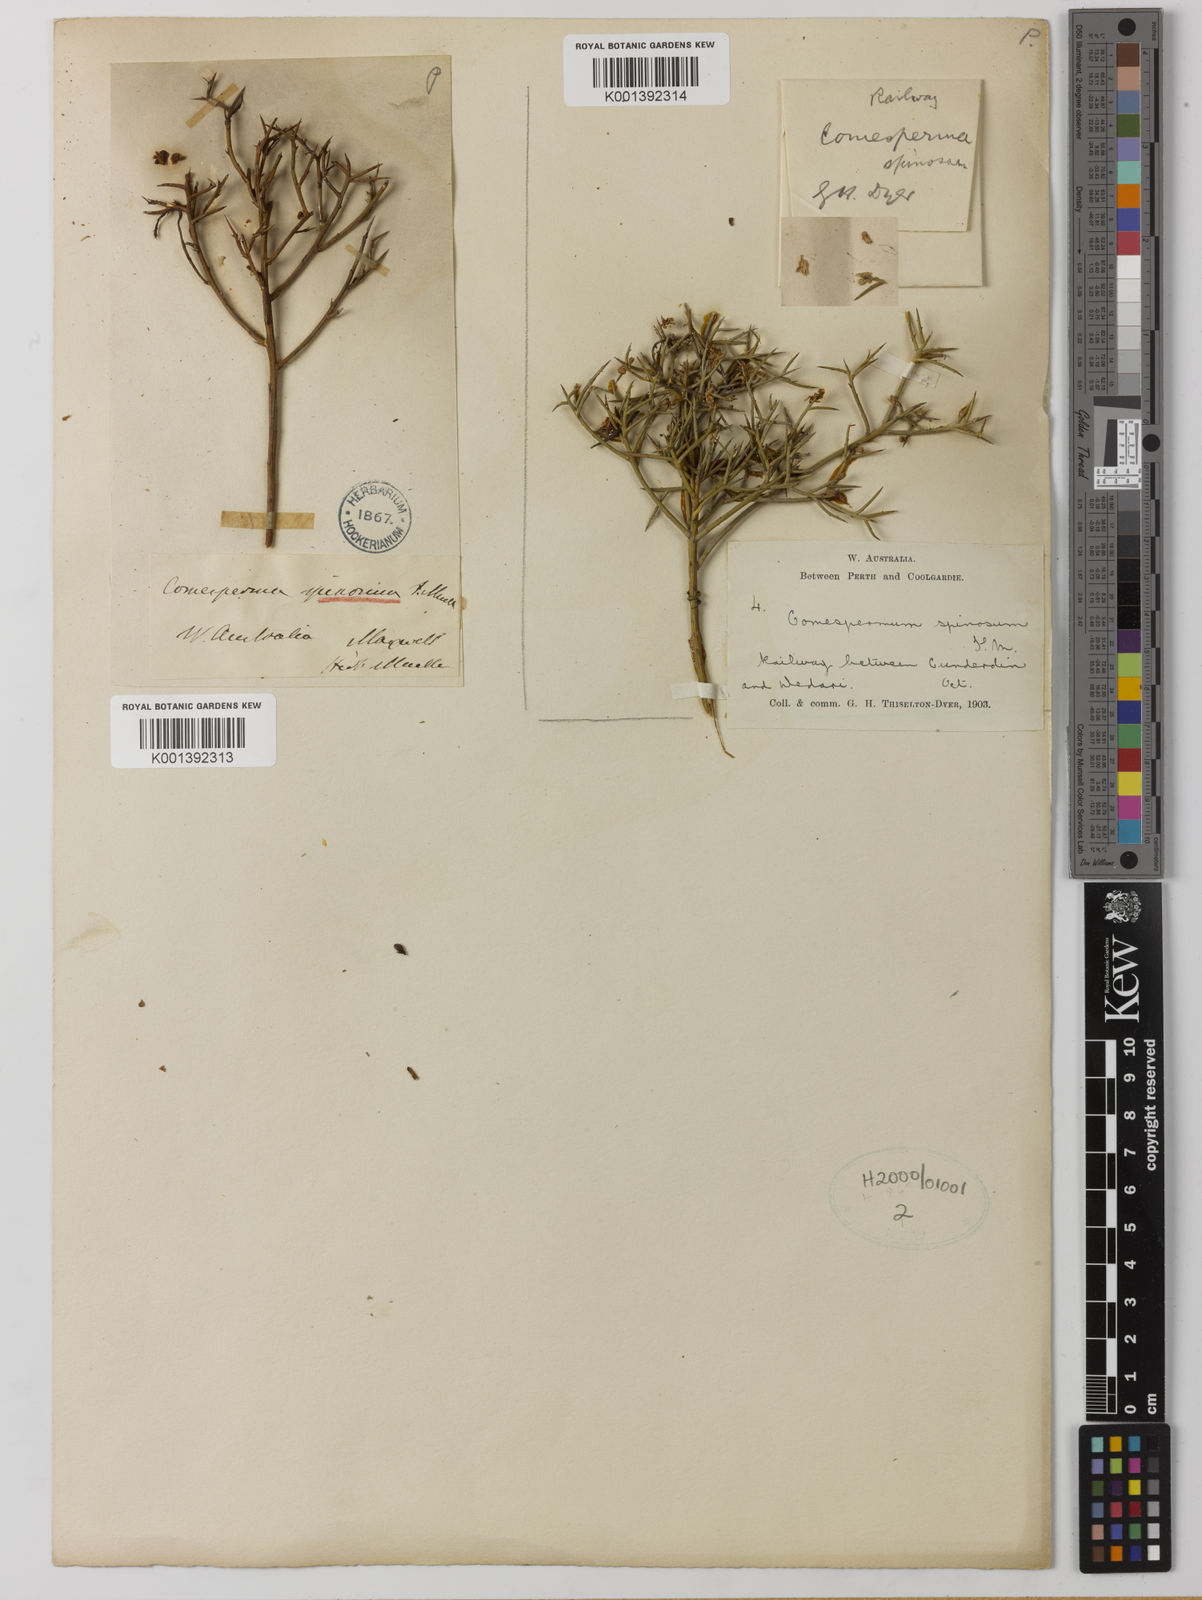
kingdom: Plantae
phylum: Tracheophyta
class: Magnoliopsida
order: Fabales
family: Polygalaceae
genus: Comesperma
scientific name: Comesperma spinosum
